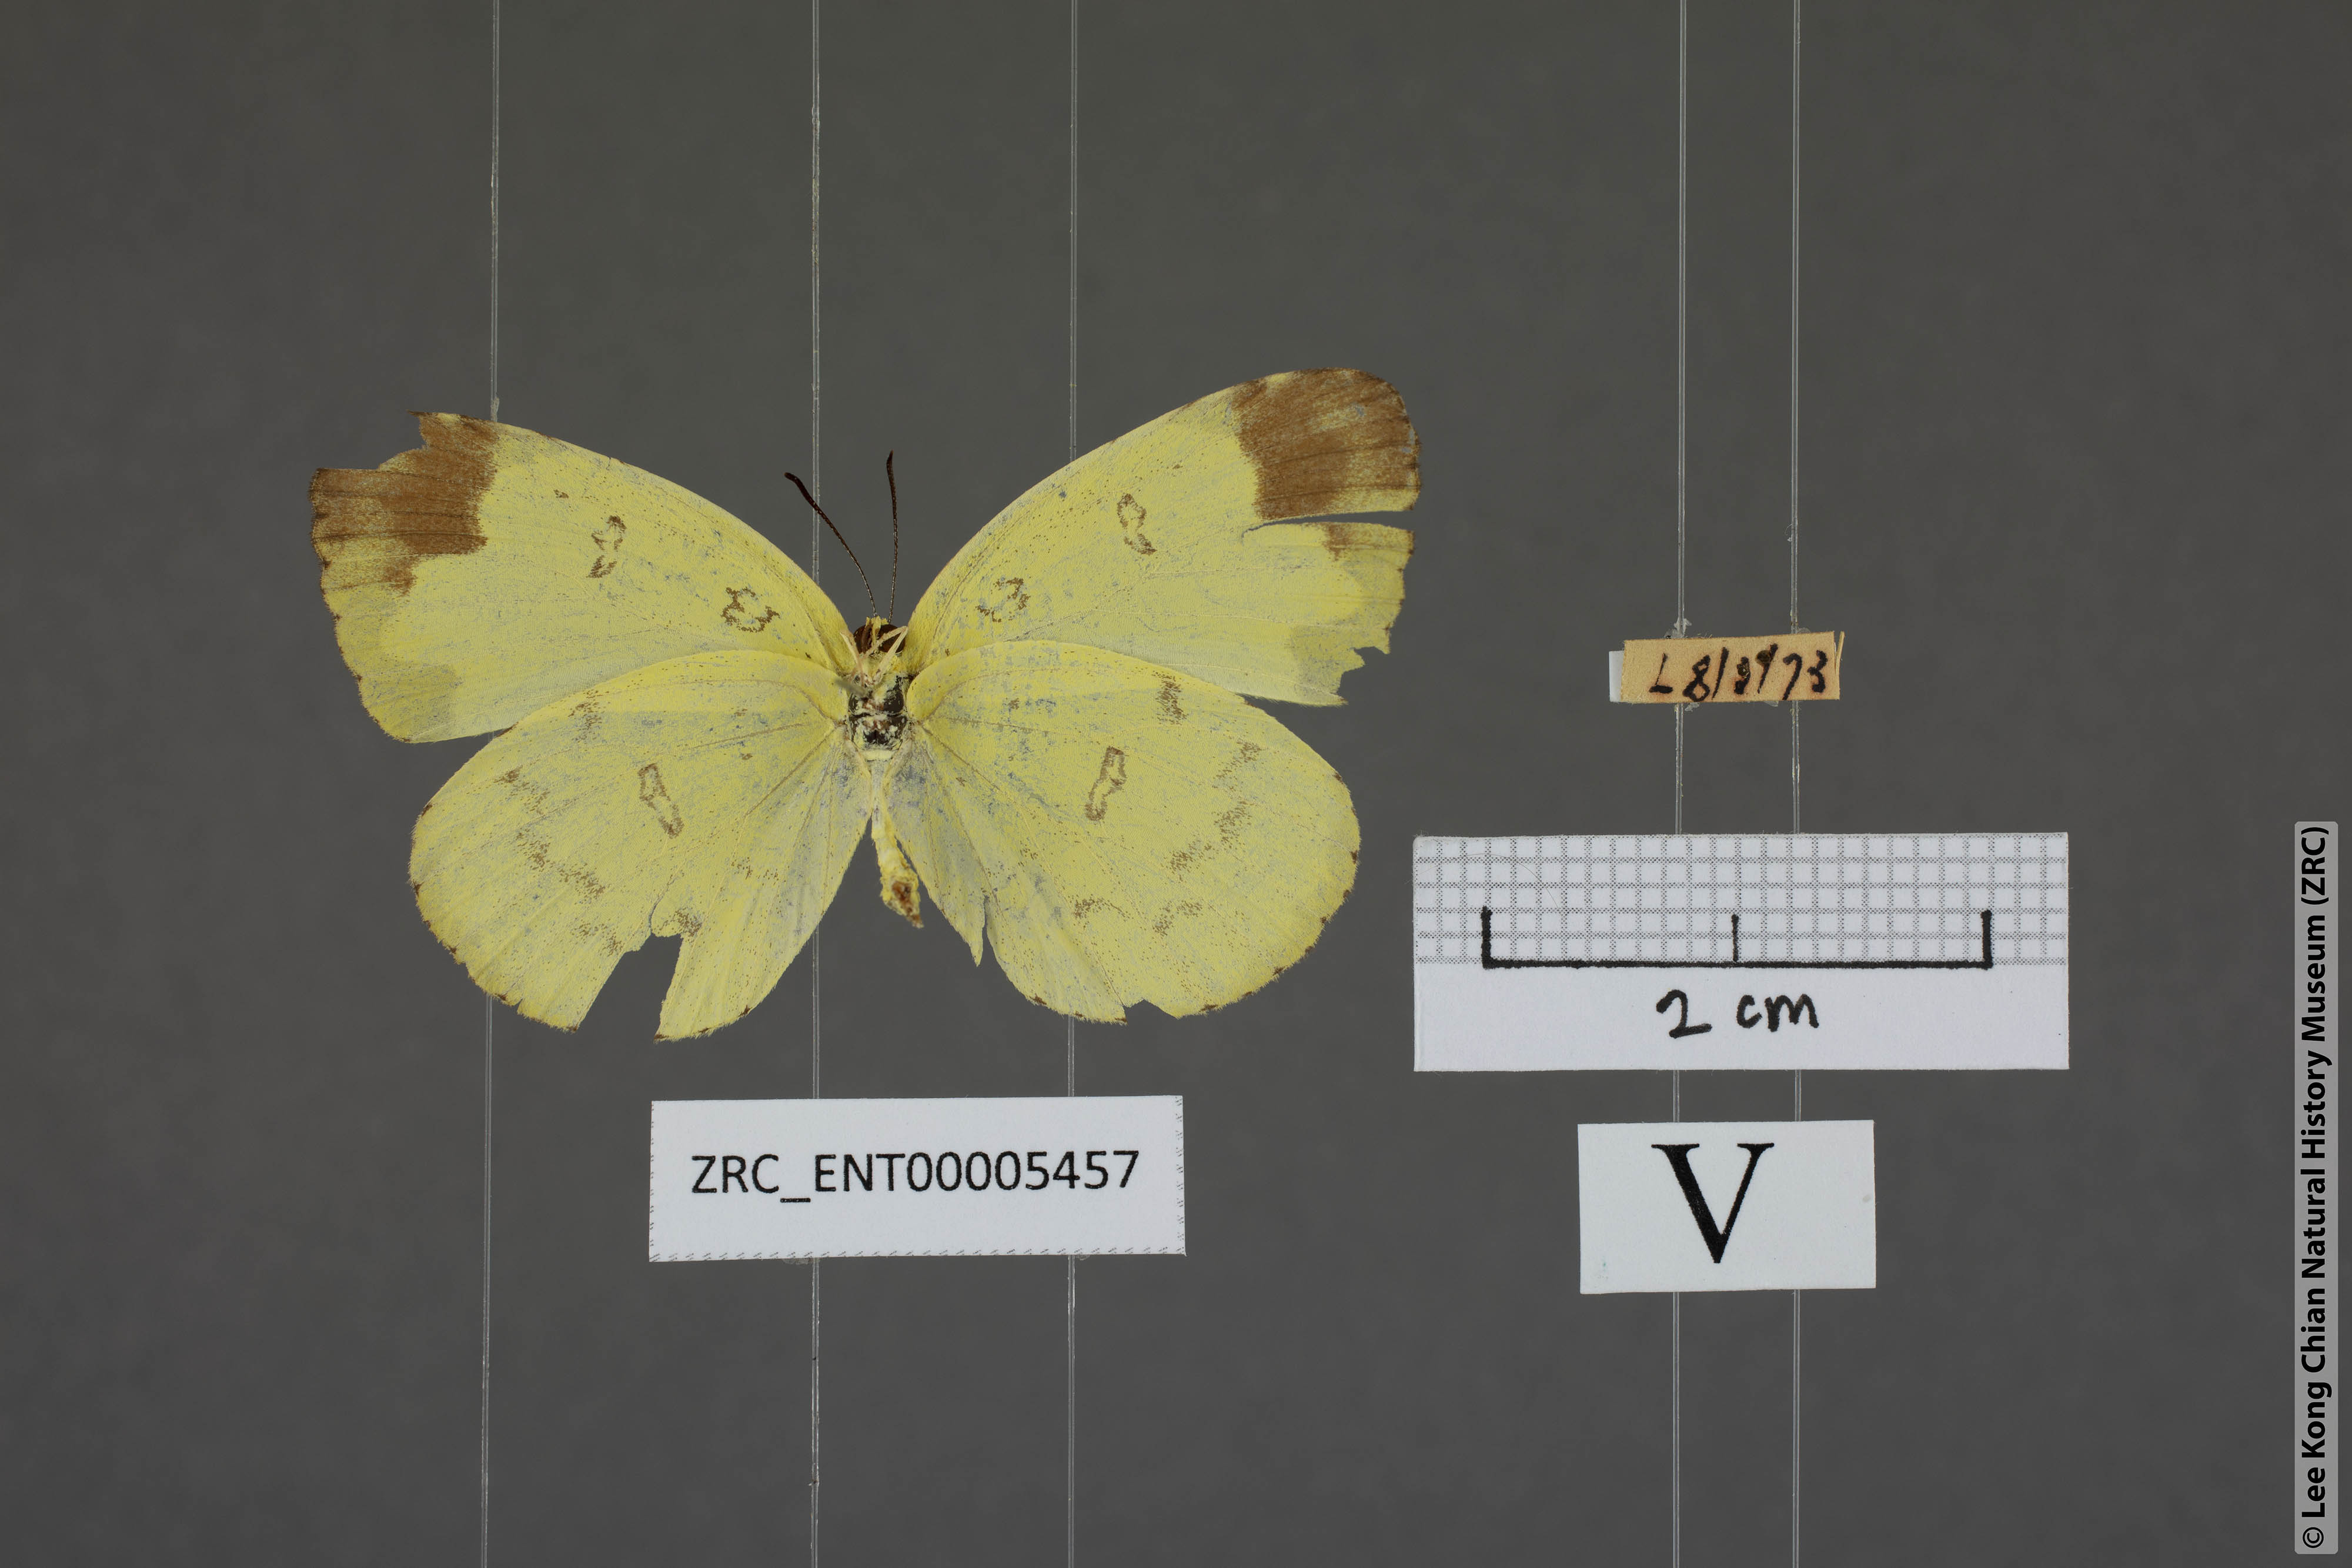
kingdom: Animalia
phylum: Arthropoda
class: Insecta
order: Lepidoptera
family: Pieridae
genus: Eurema
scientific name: Eurema lacteola
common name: Scarce grass yellow
